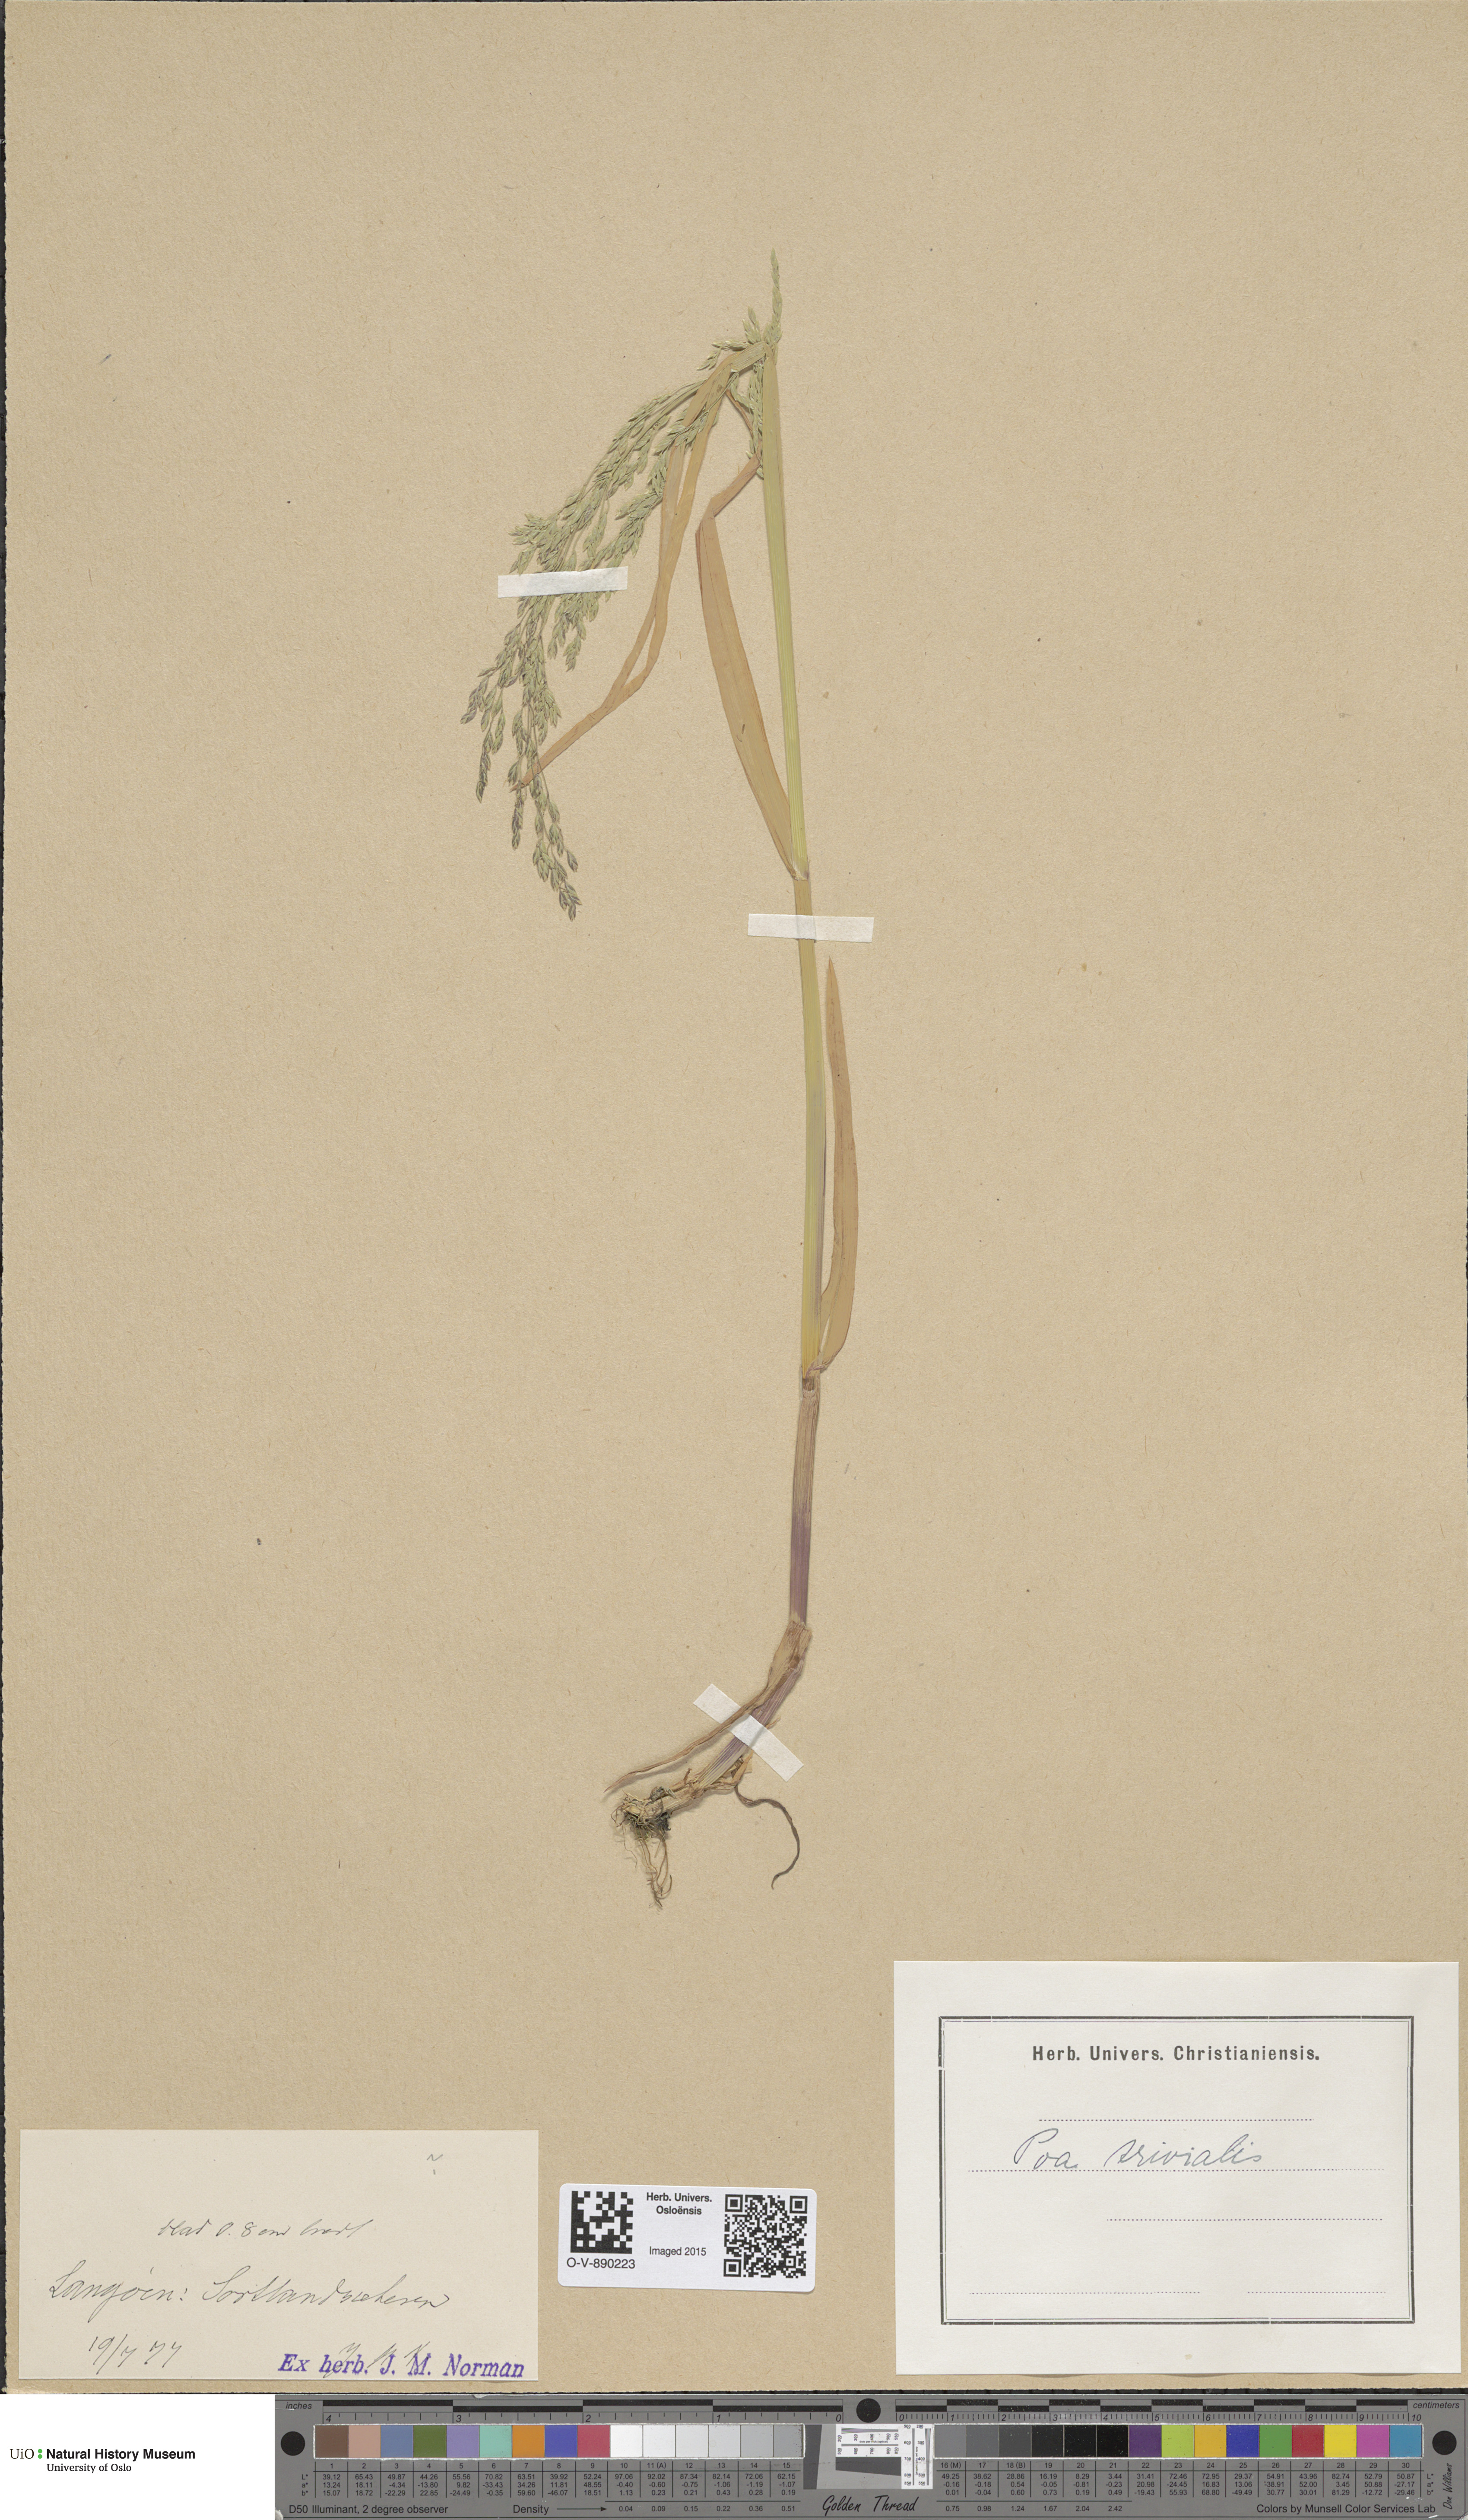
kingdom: Plantae
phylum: Tracheophyta
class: Liliopsida
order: Poales
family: Poaceae
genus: Poa
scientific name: Poa trivialis
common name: Rough bluegrass
